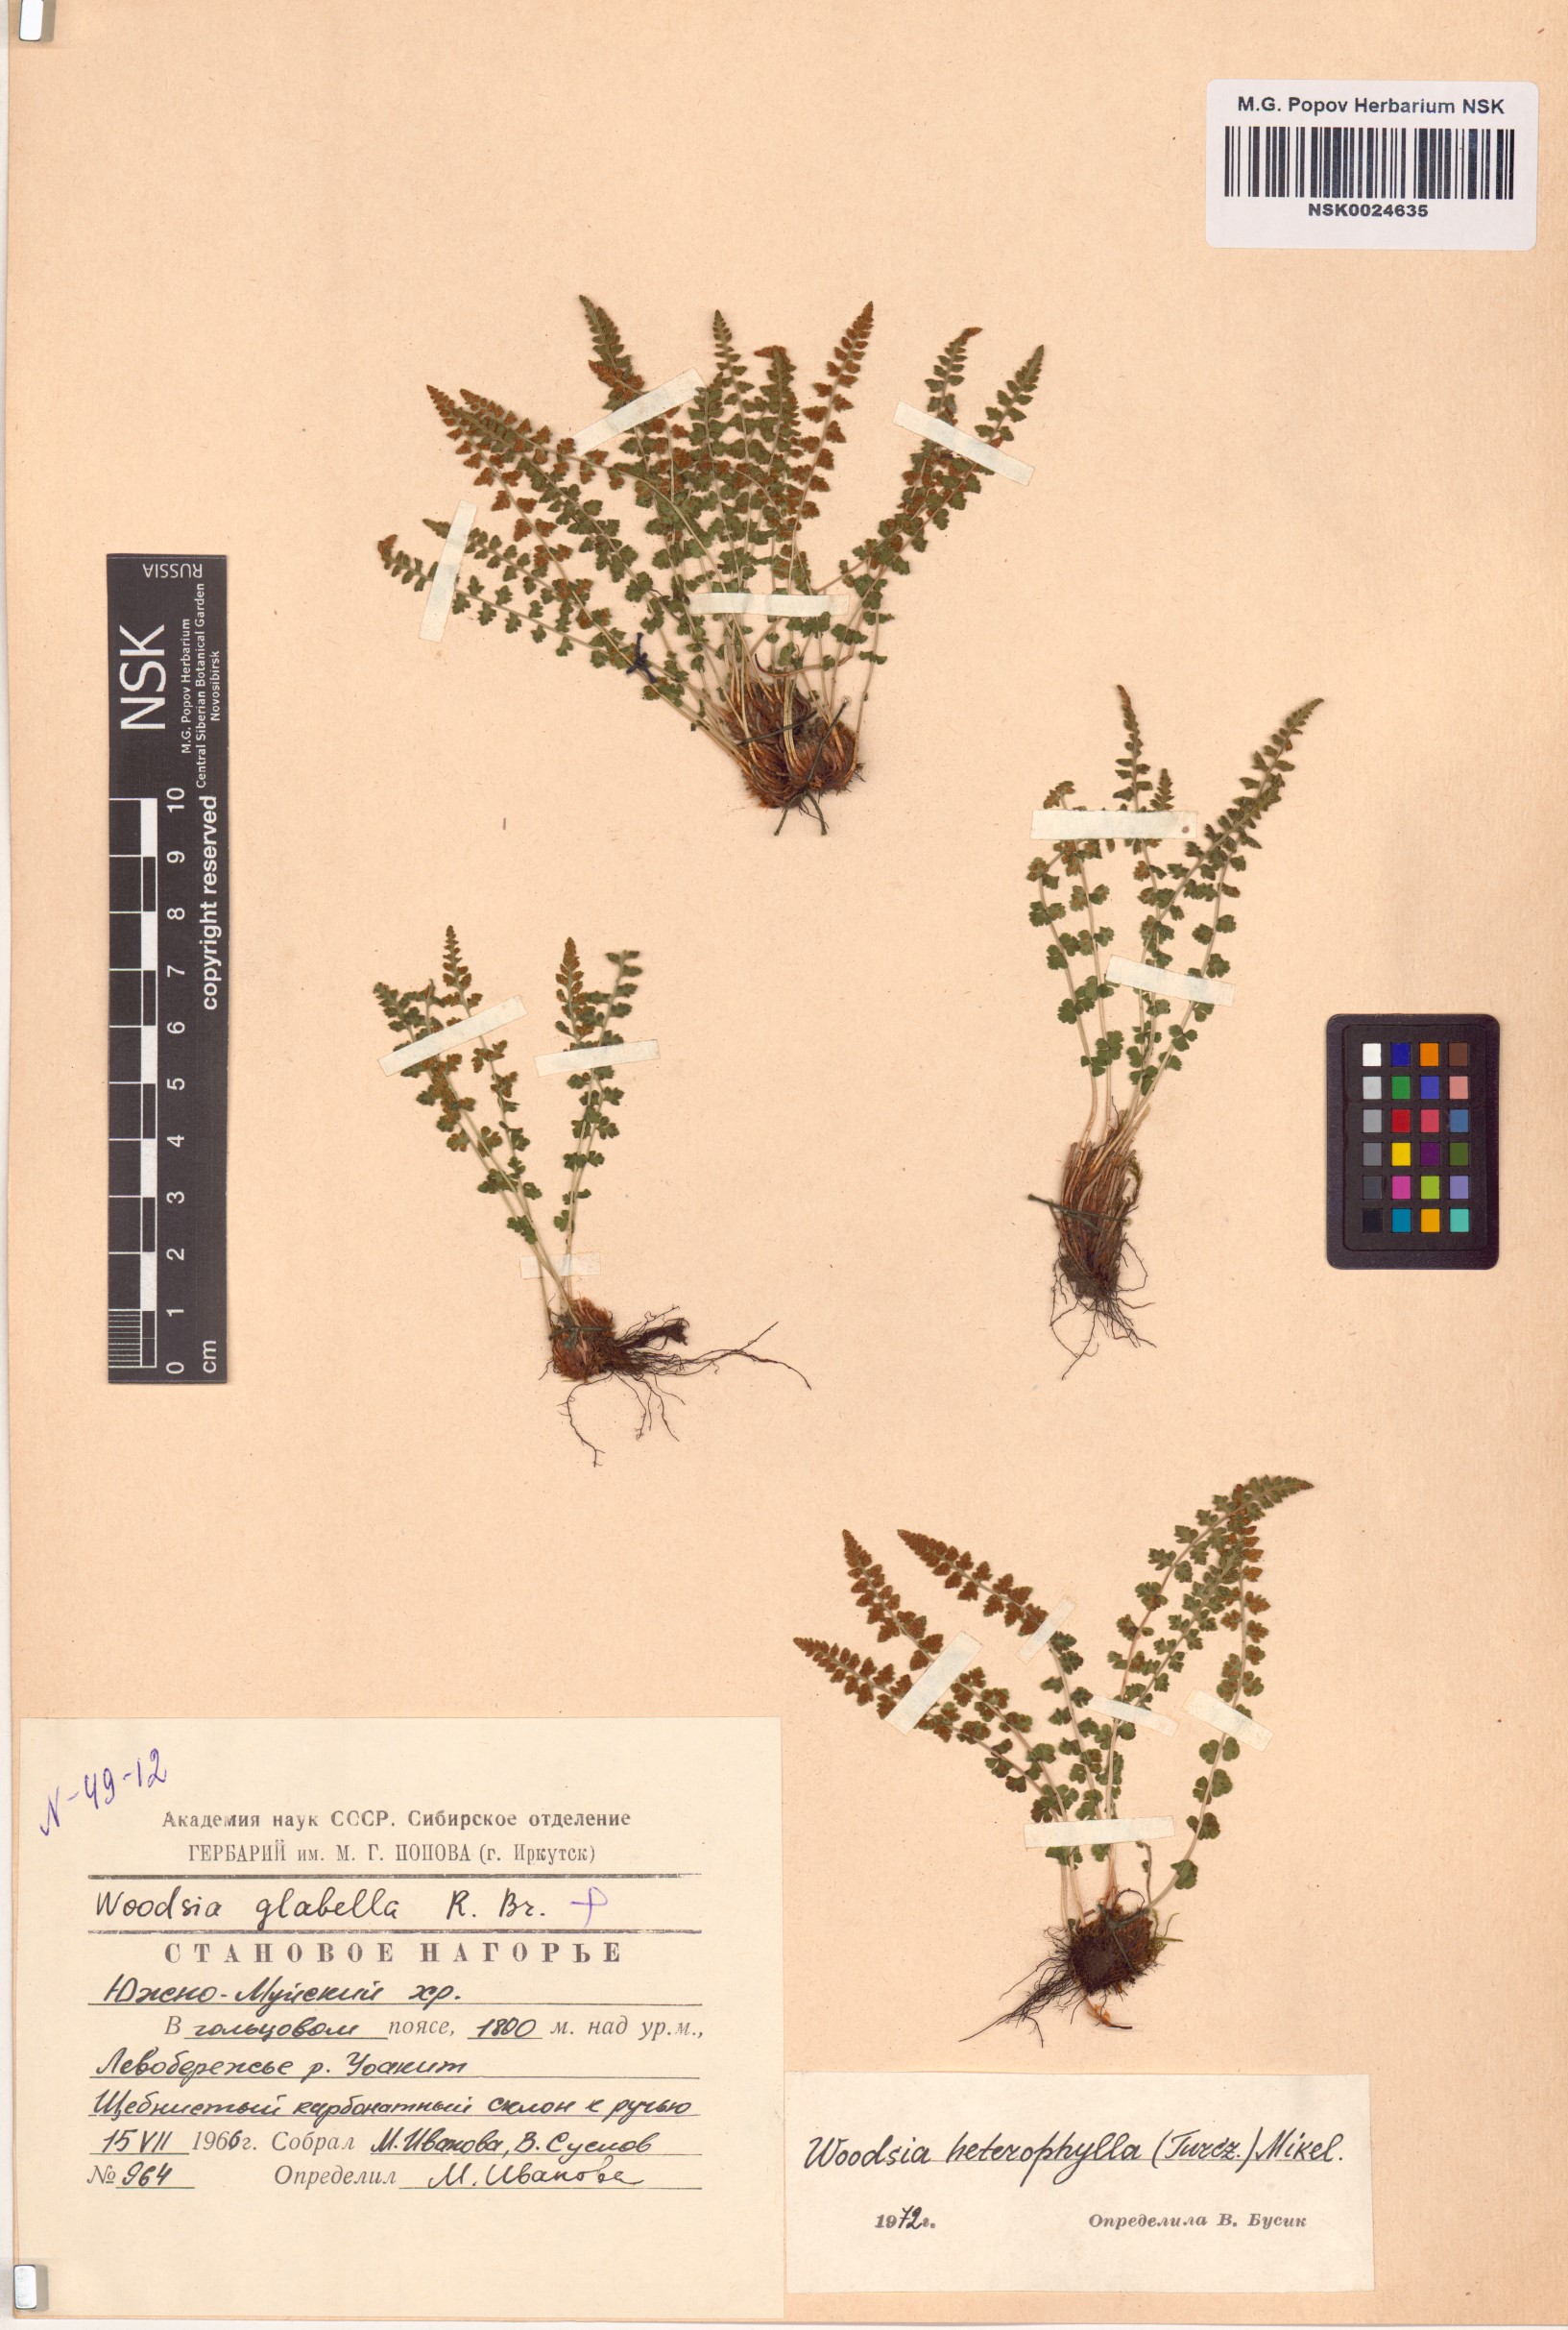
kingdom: Plantae
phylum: Tracheophyta
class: Polypodiopsida
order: Polypodiales
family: Woodsiaceae
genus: Woodsia
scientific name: Woodsia pulchella
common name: Graceful woodsia
